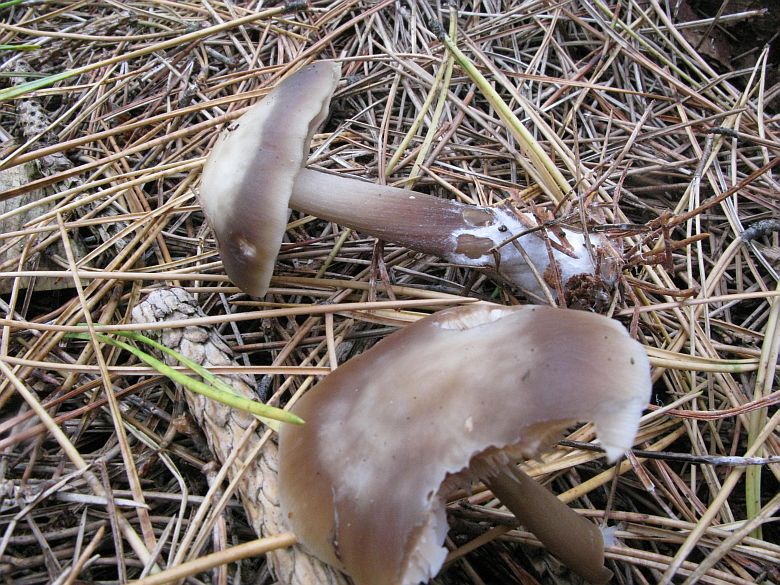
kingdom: Fungi
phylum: Basidiomycota
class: Agaricomycetes
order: Agaricales
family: Omphalotaceae
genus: Rhodocollybia
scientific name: Rhodocollybia asema
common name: horngrå fladhat
